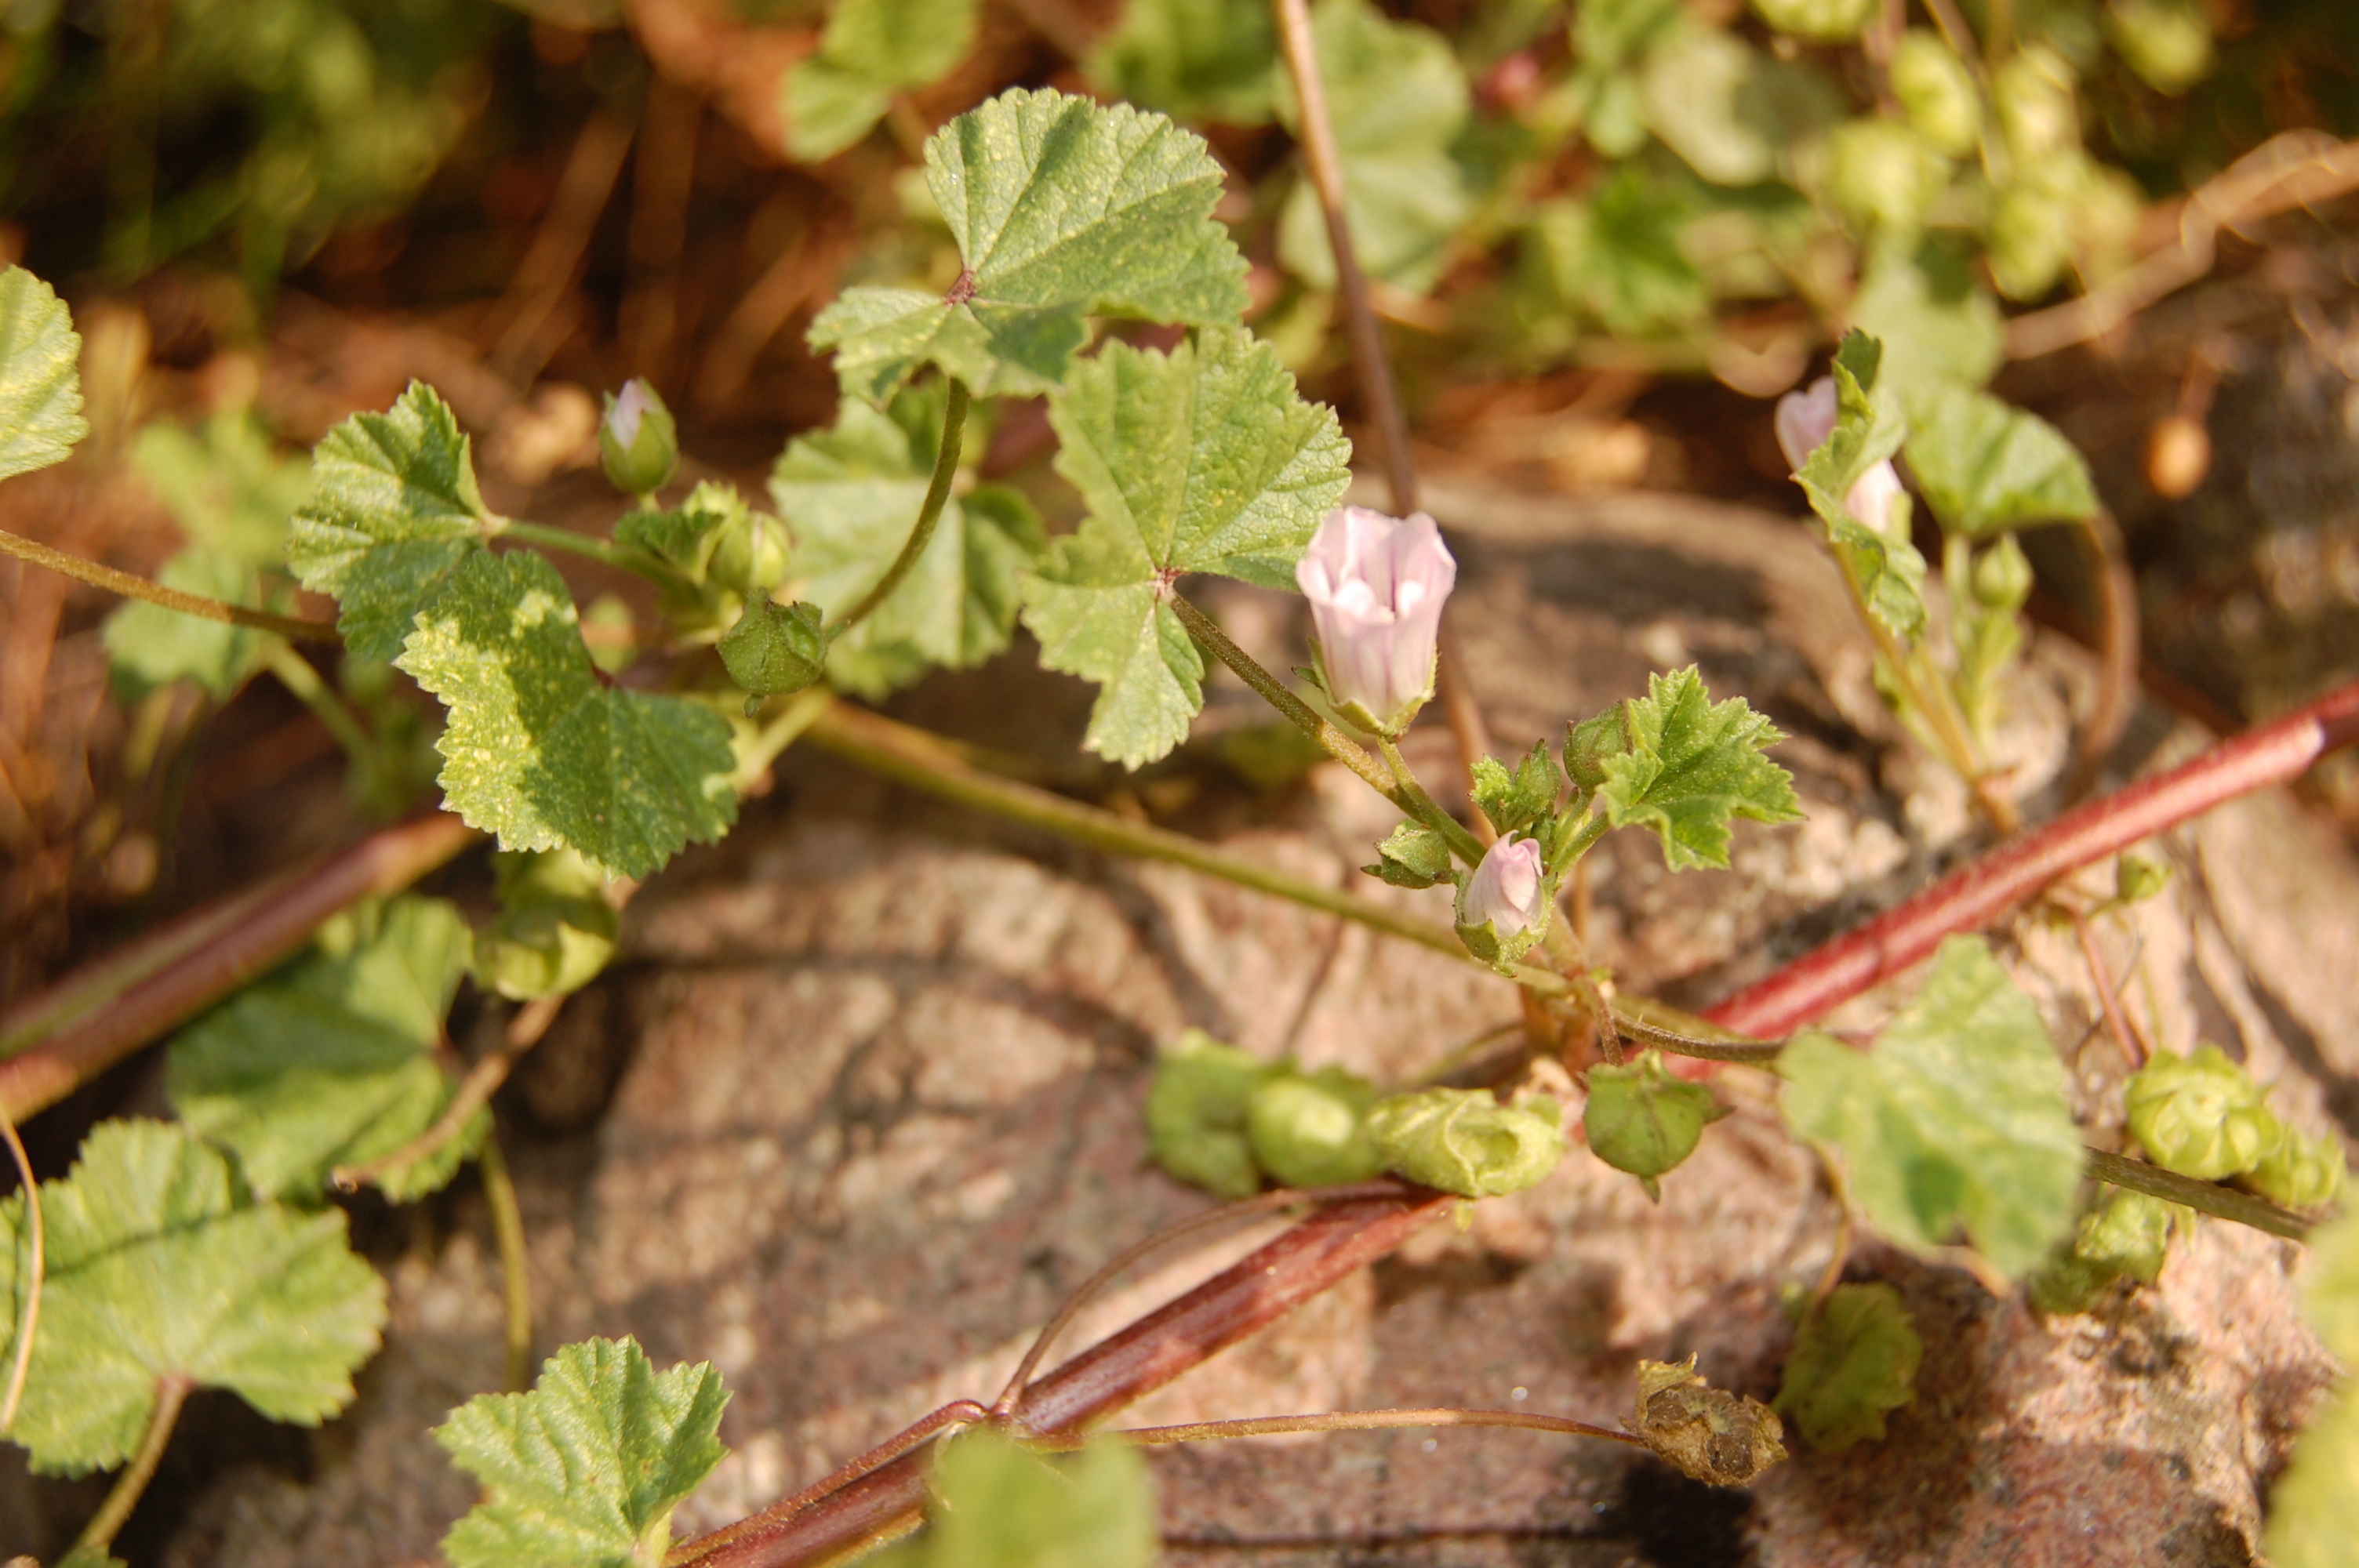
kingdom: Plantae
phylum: Tracheophyta
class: Magnoliopsida
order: Malvales
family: Malvaceae
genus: Malva
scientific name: Malva neglecta
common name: Common mallow
